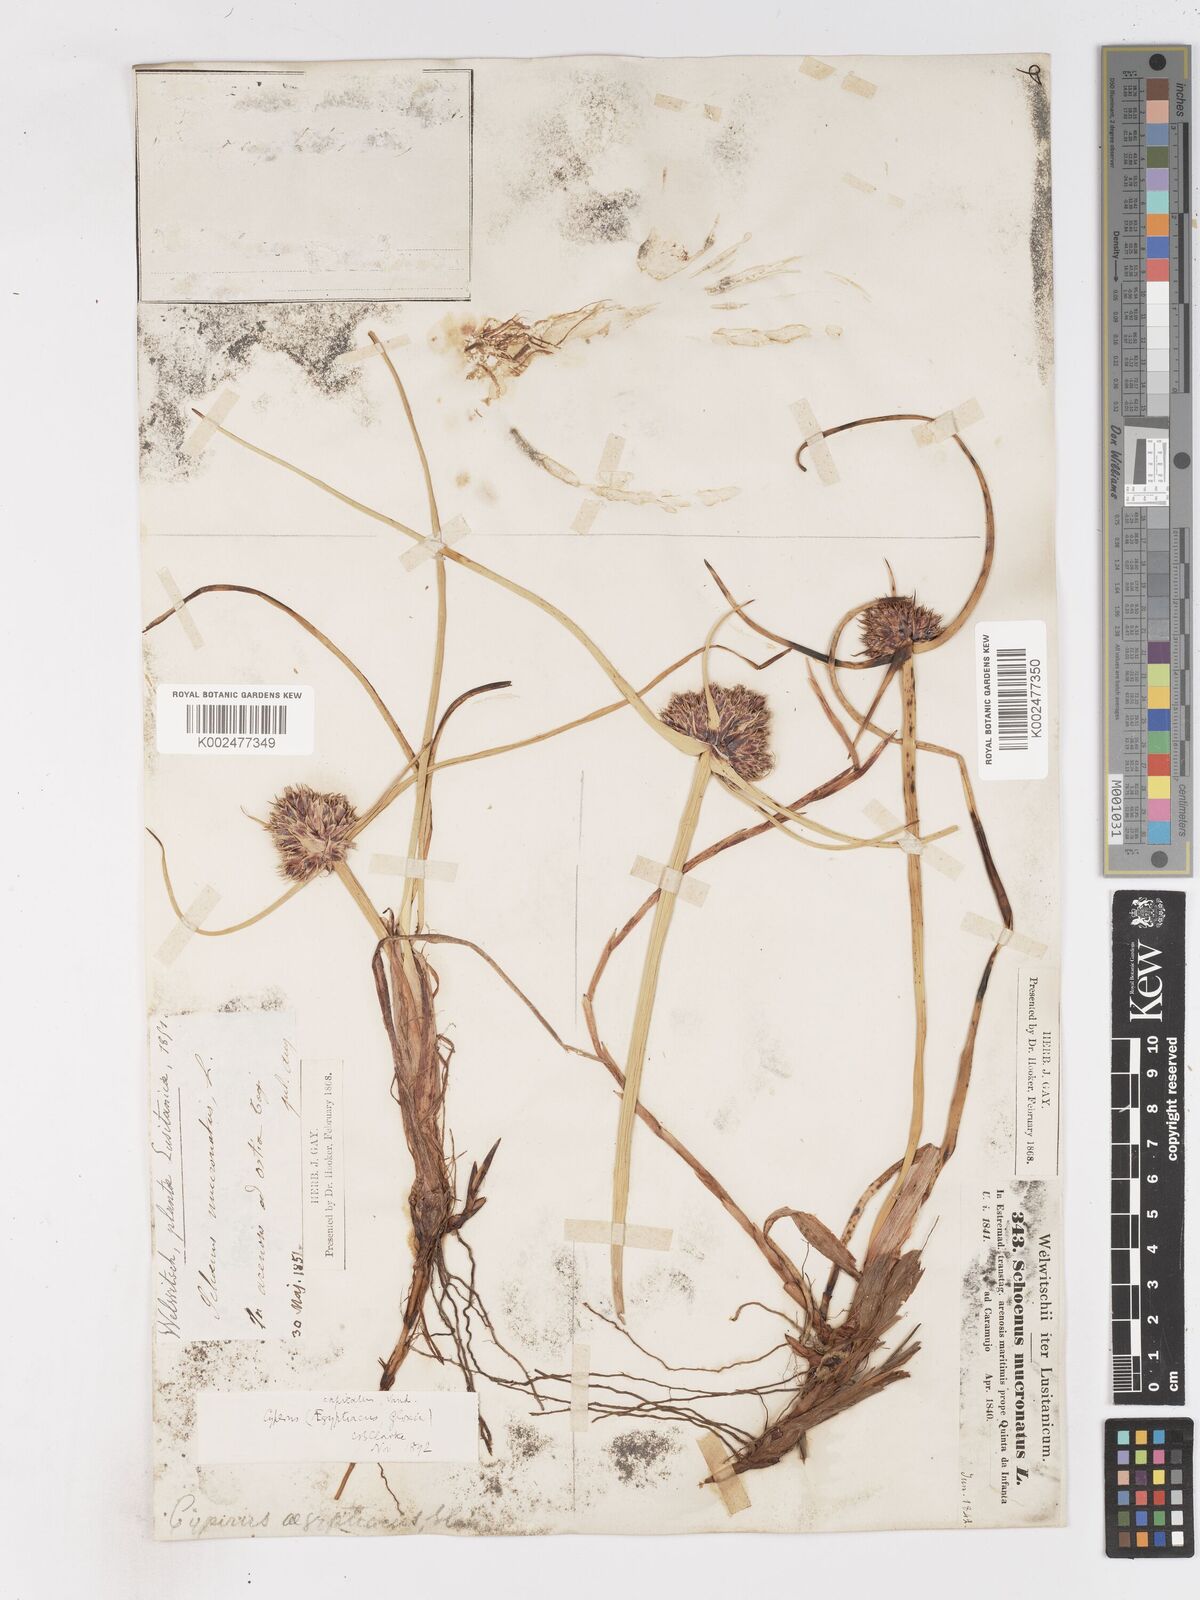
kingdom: Plantae
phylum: Tracheophyta
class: Liliopsida
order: Poales
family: Cyperaceae
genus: Cyperus
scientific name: Cyperus capitatus
